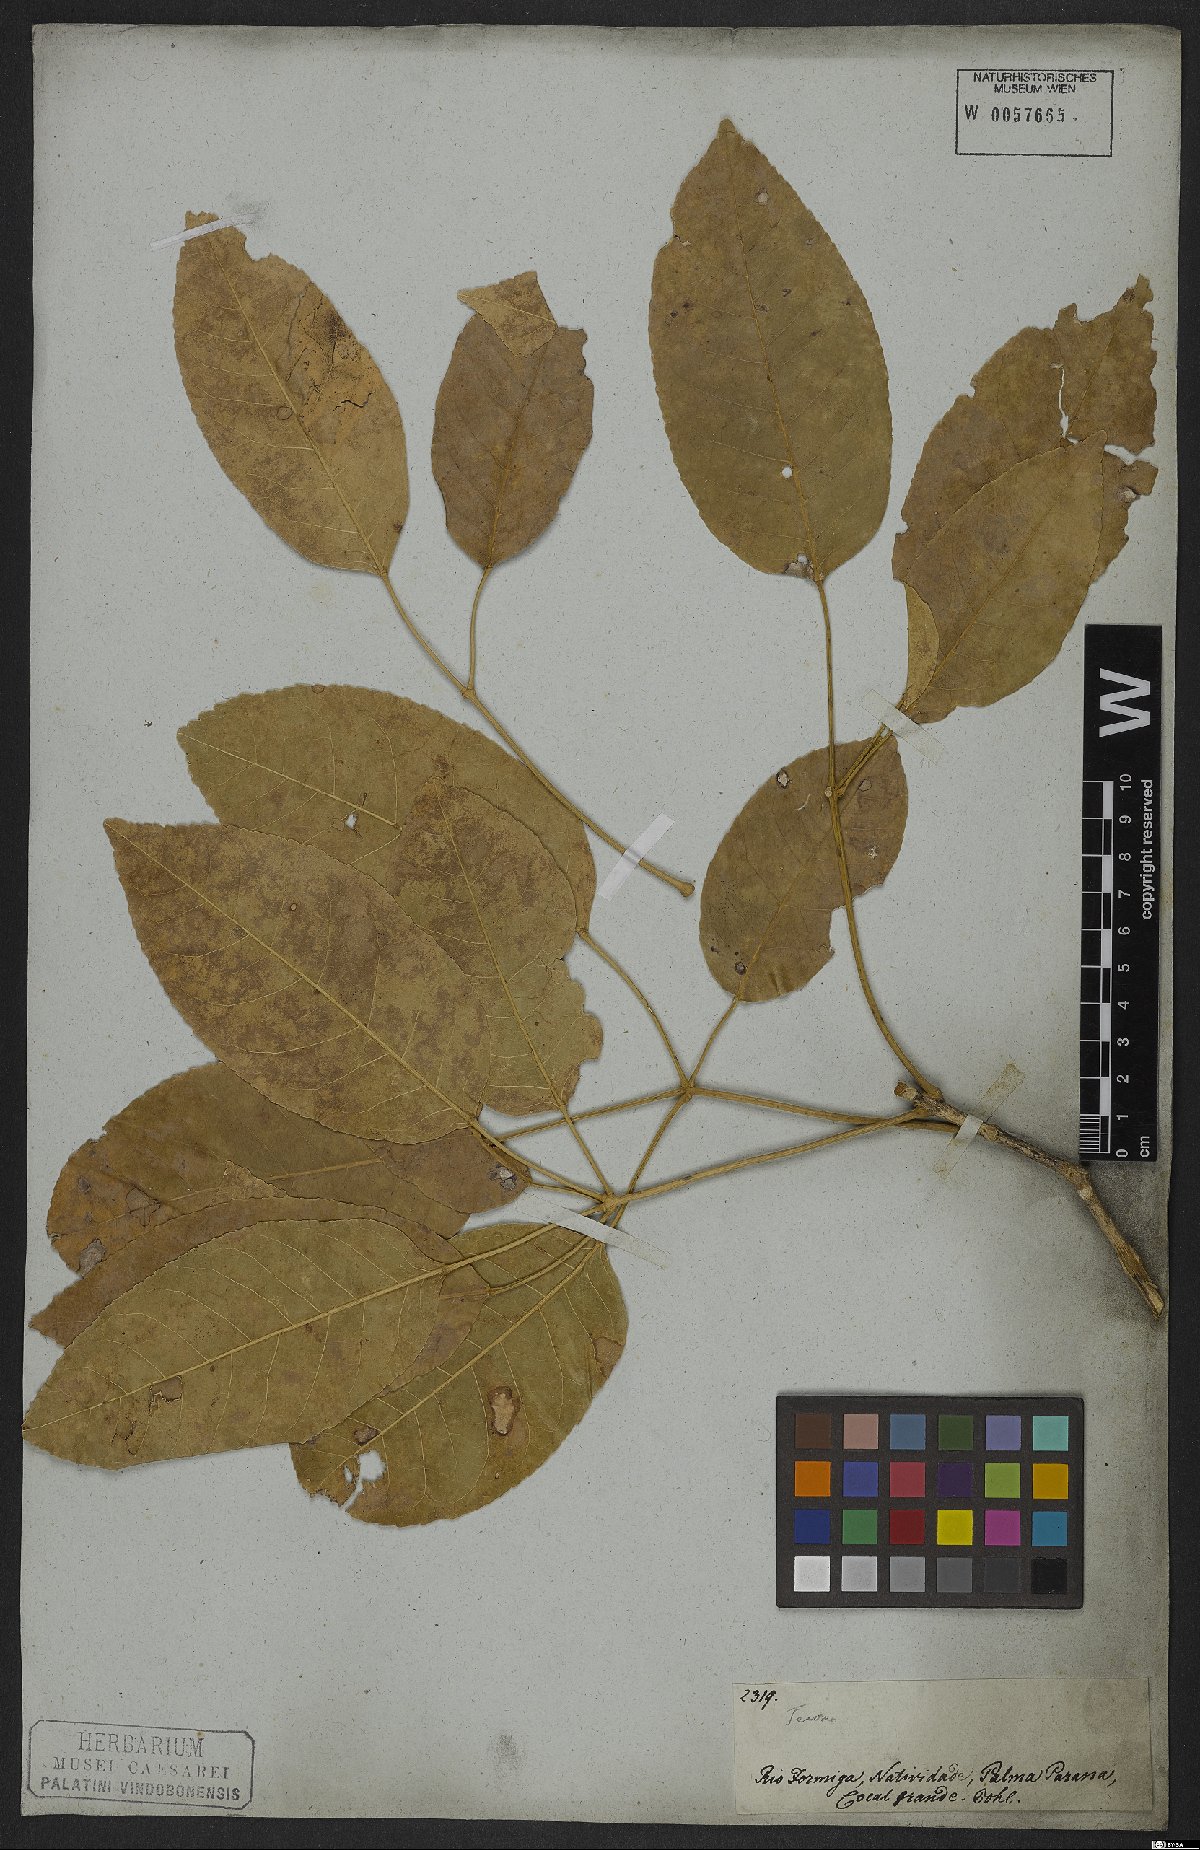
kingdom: Plantae
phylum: Tracheophyta
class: Magnoliopsida
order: Lamiales
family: Bignoniaceae
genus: Handroanthus
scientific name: Handroanthus serratifolius
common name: Yellow ipe
